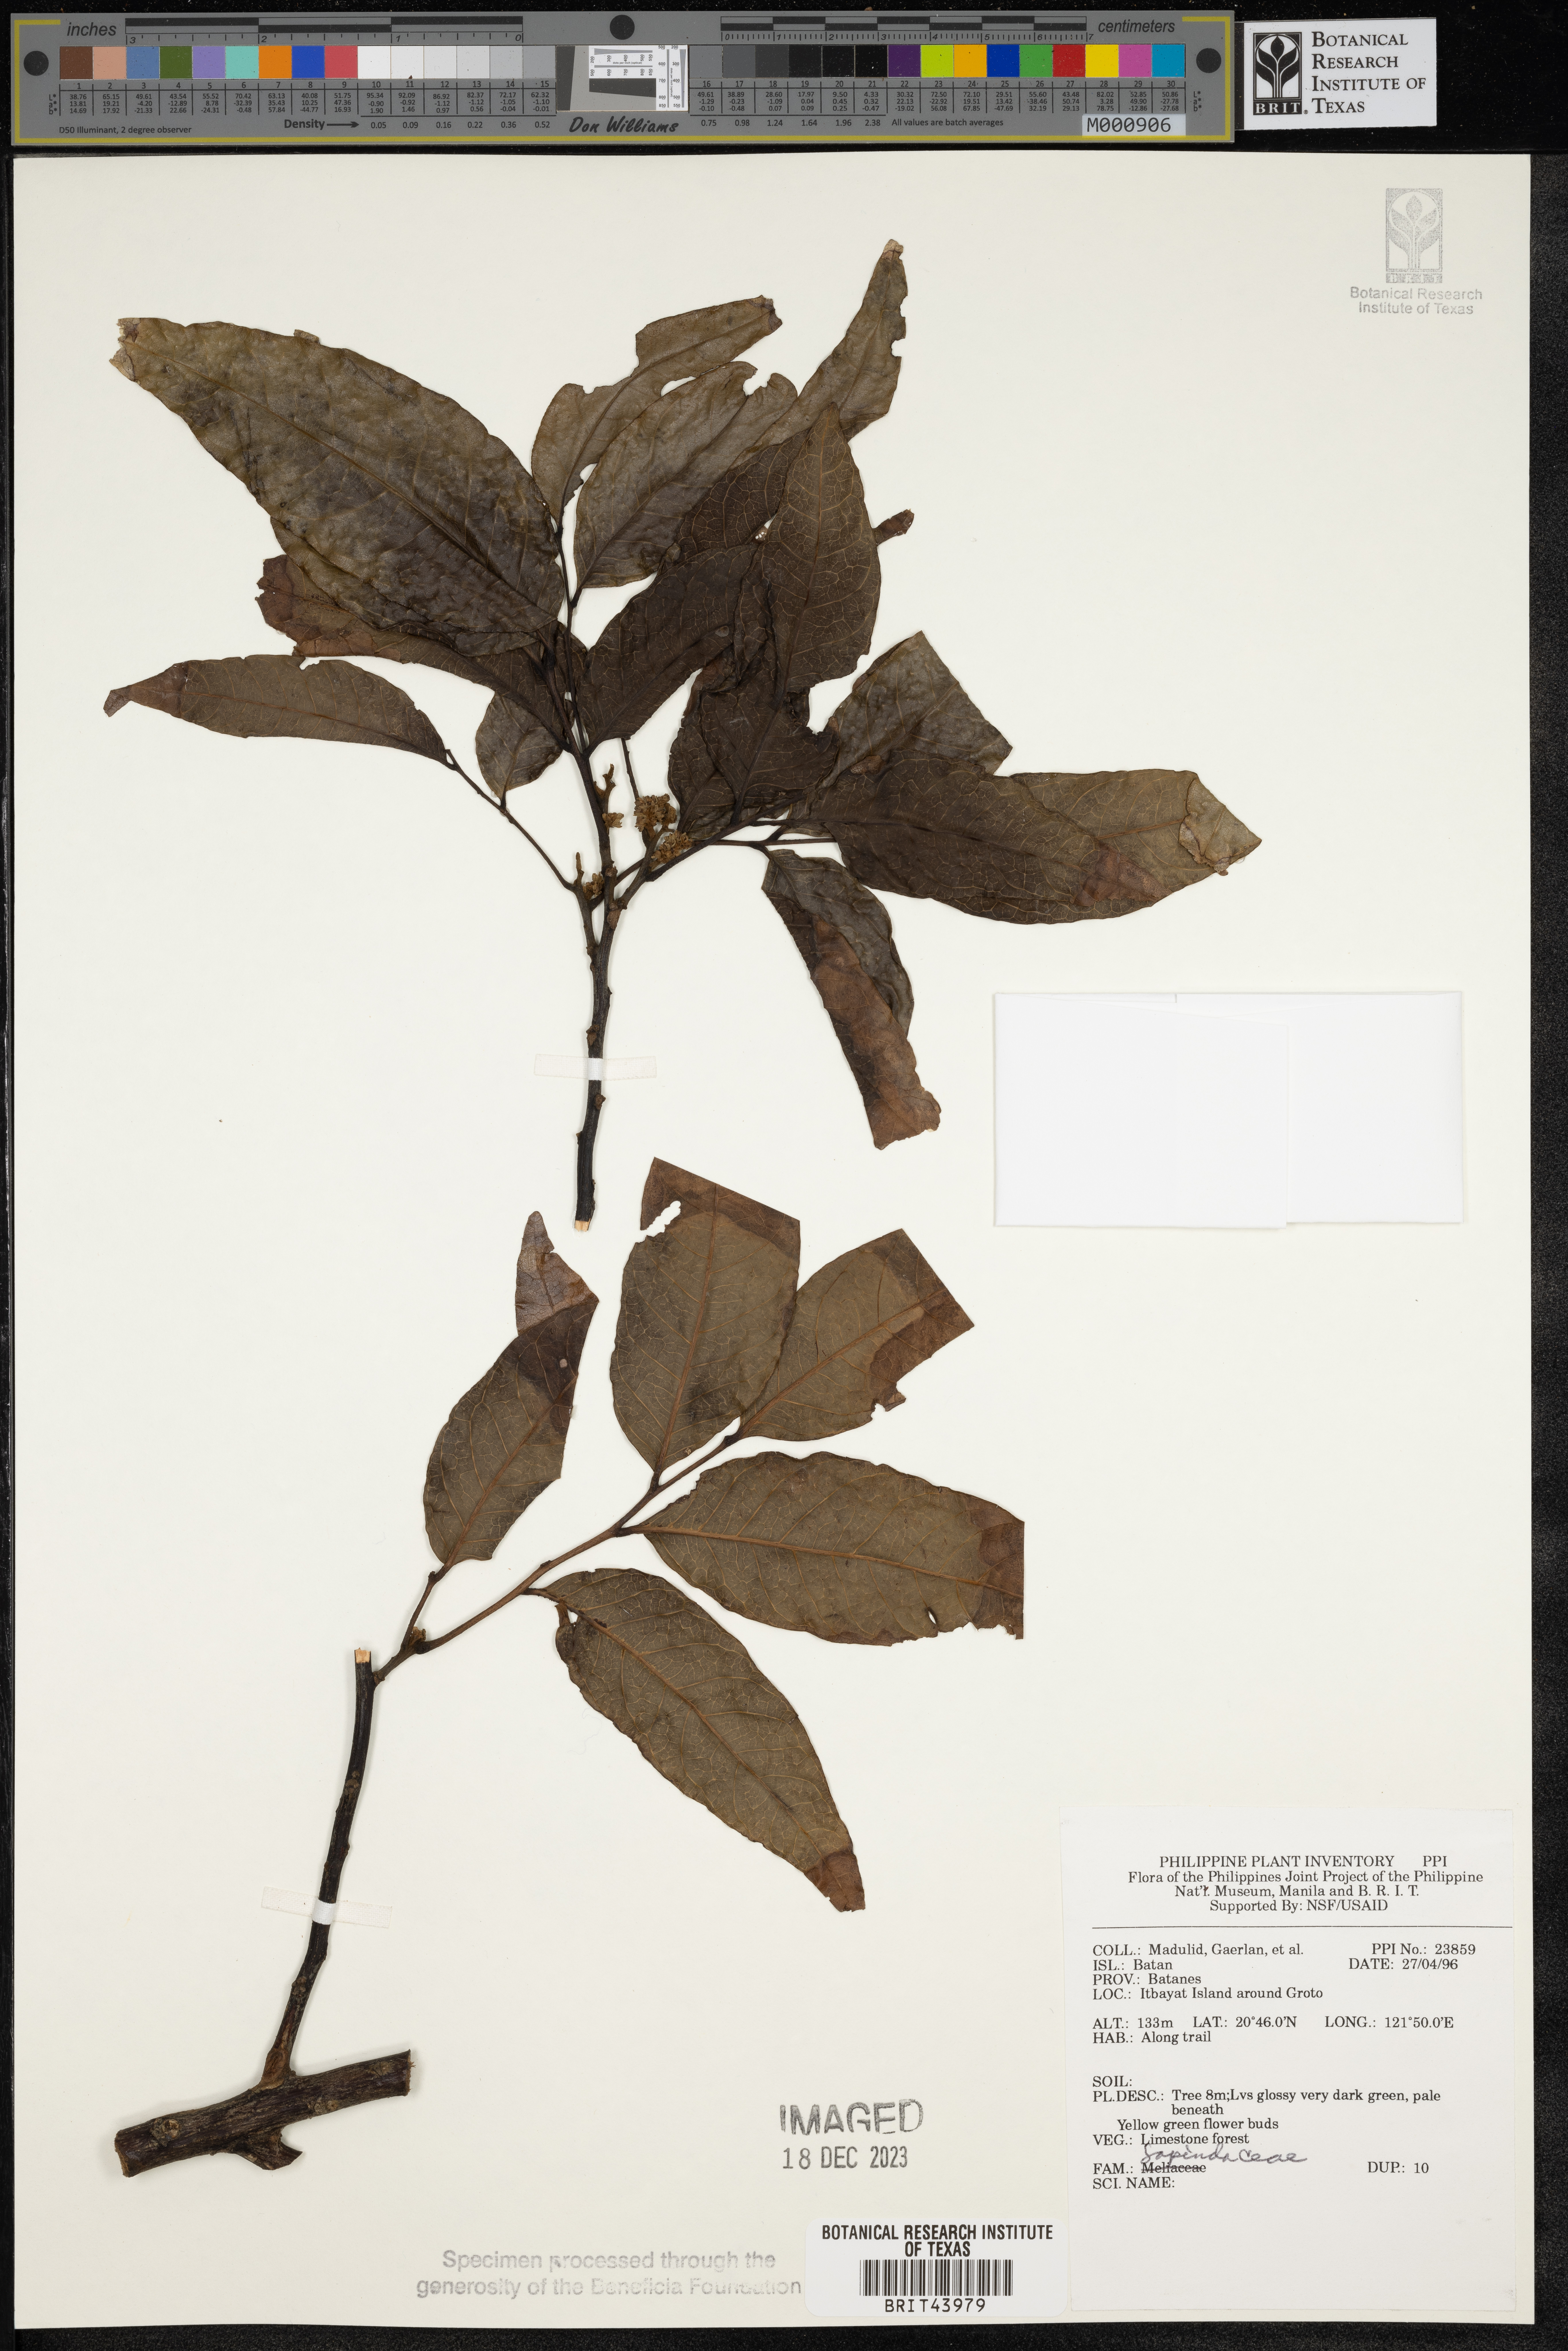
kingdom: Plantae
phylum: Tracheophyta
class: Magnoliopsida
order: Sapindales
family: Sapindaceae
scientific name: Sapindaceae
